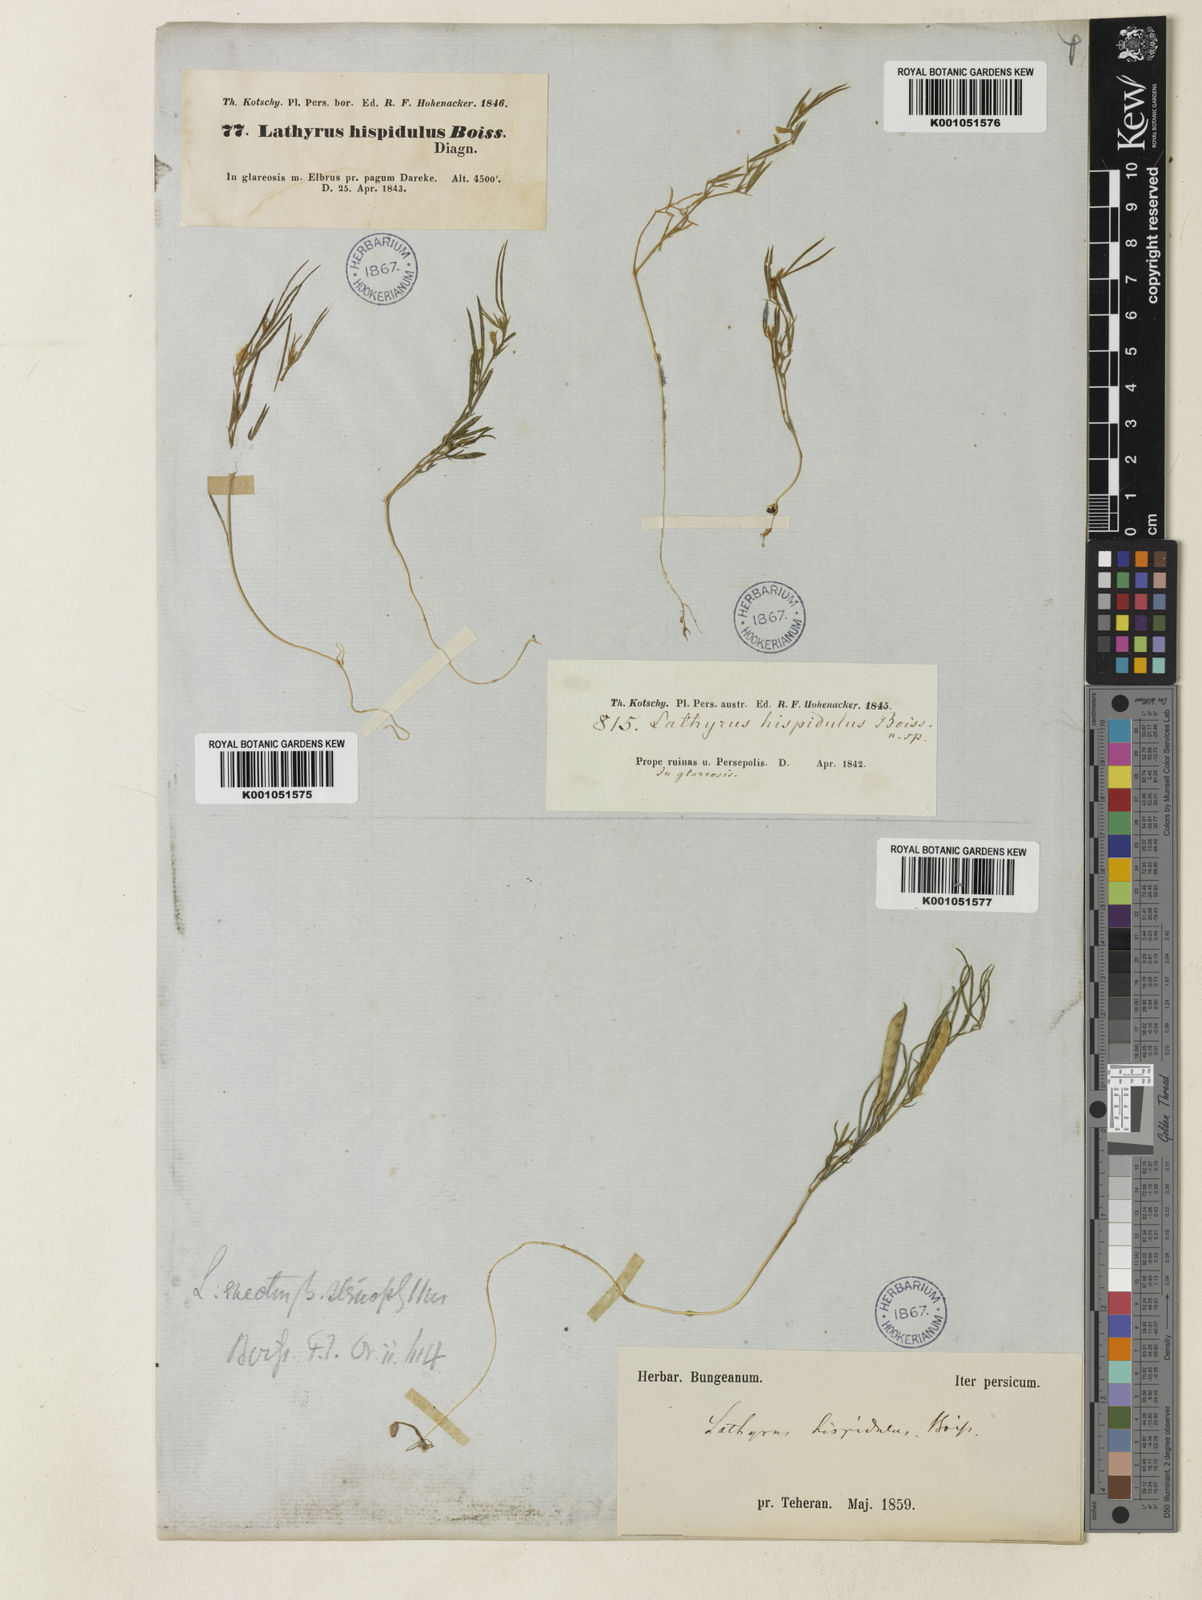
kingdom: Plantae
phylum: Tracheophyta
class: Magnoliopsida
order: Fabales
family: Fabaceae
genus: Lathyrus
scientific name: Lathyrus inconspicuus
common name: Inconspicuous pea
